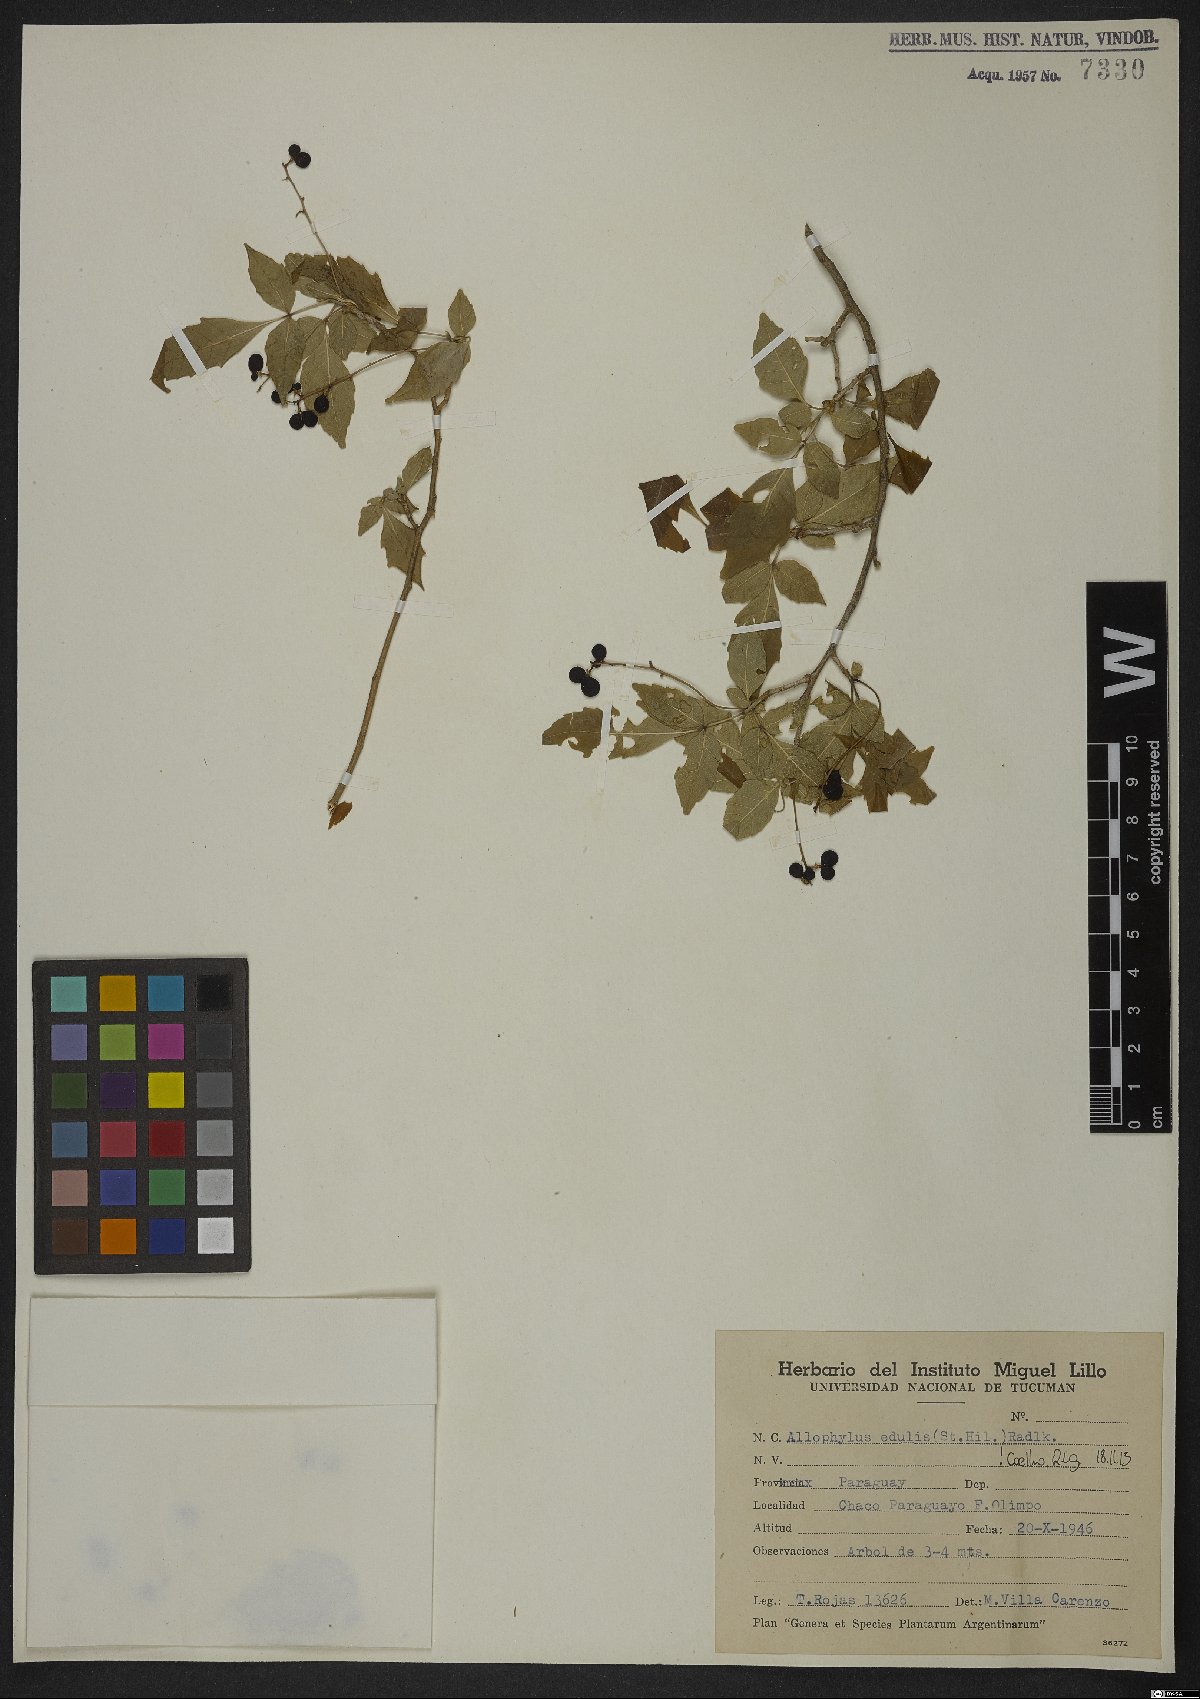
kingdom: Plantae
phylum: Tracheophyta
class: Magnoliopsida
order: Sapindales
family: Sapindaceae
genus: Allophylus
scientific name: Allophylus edulis
